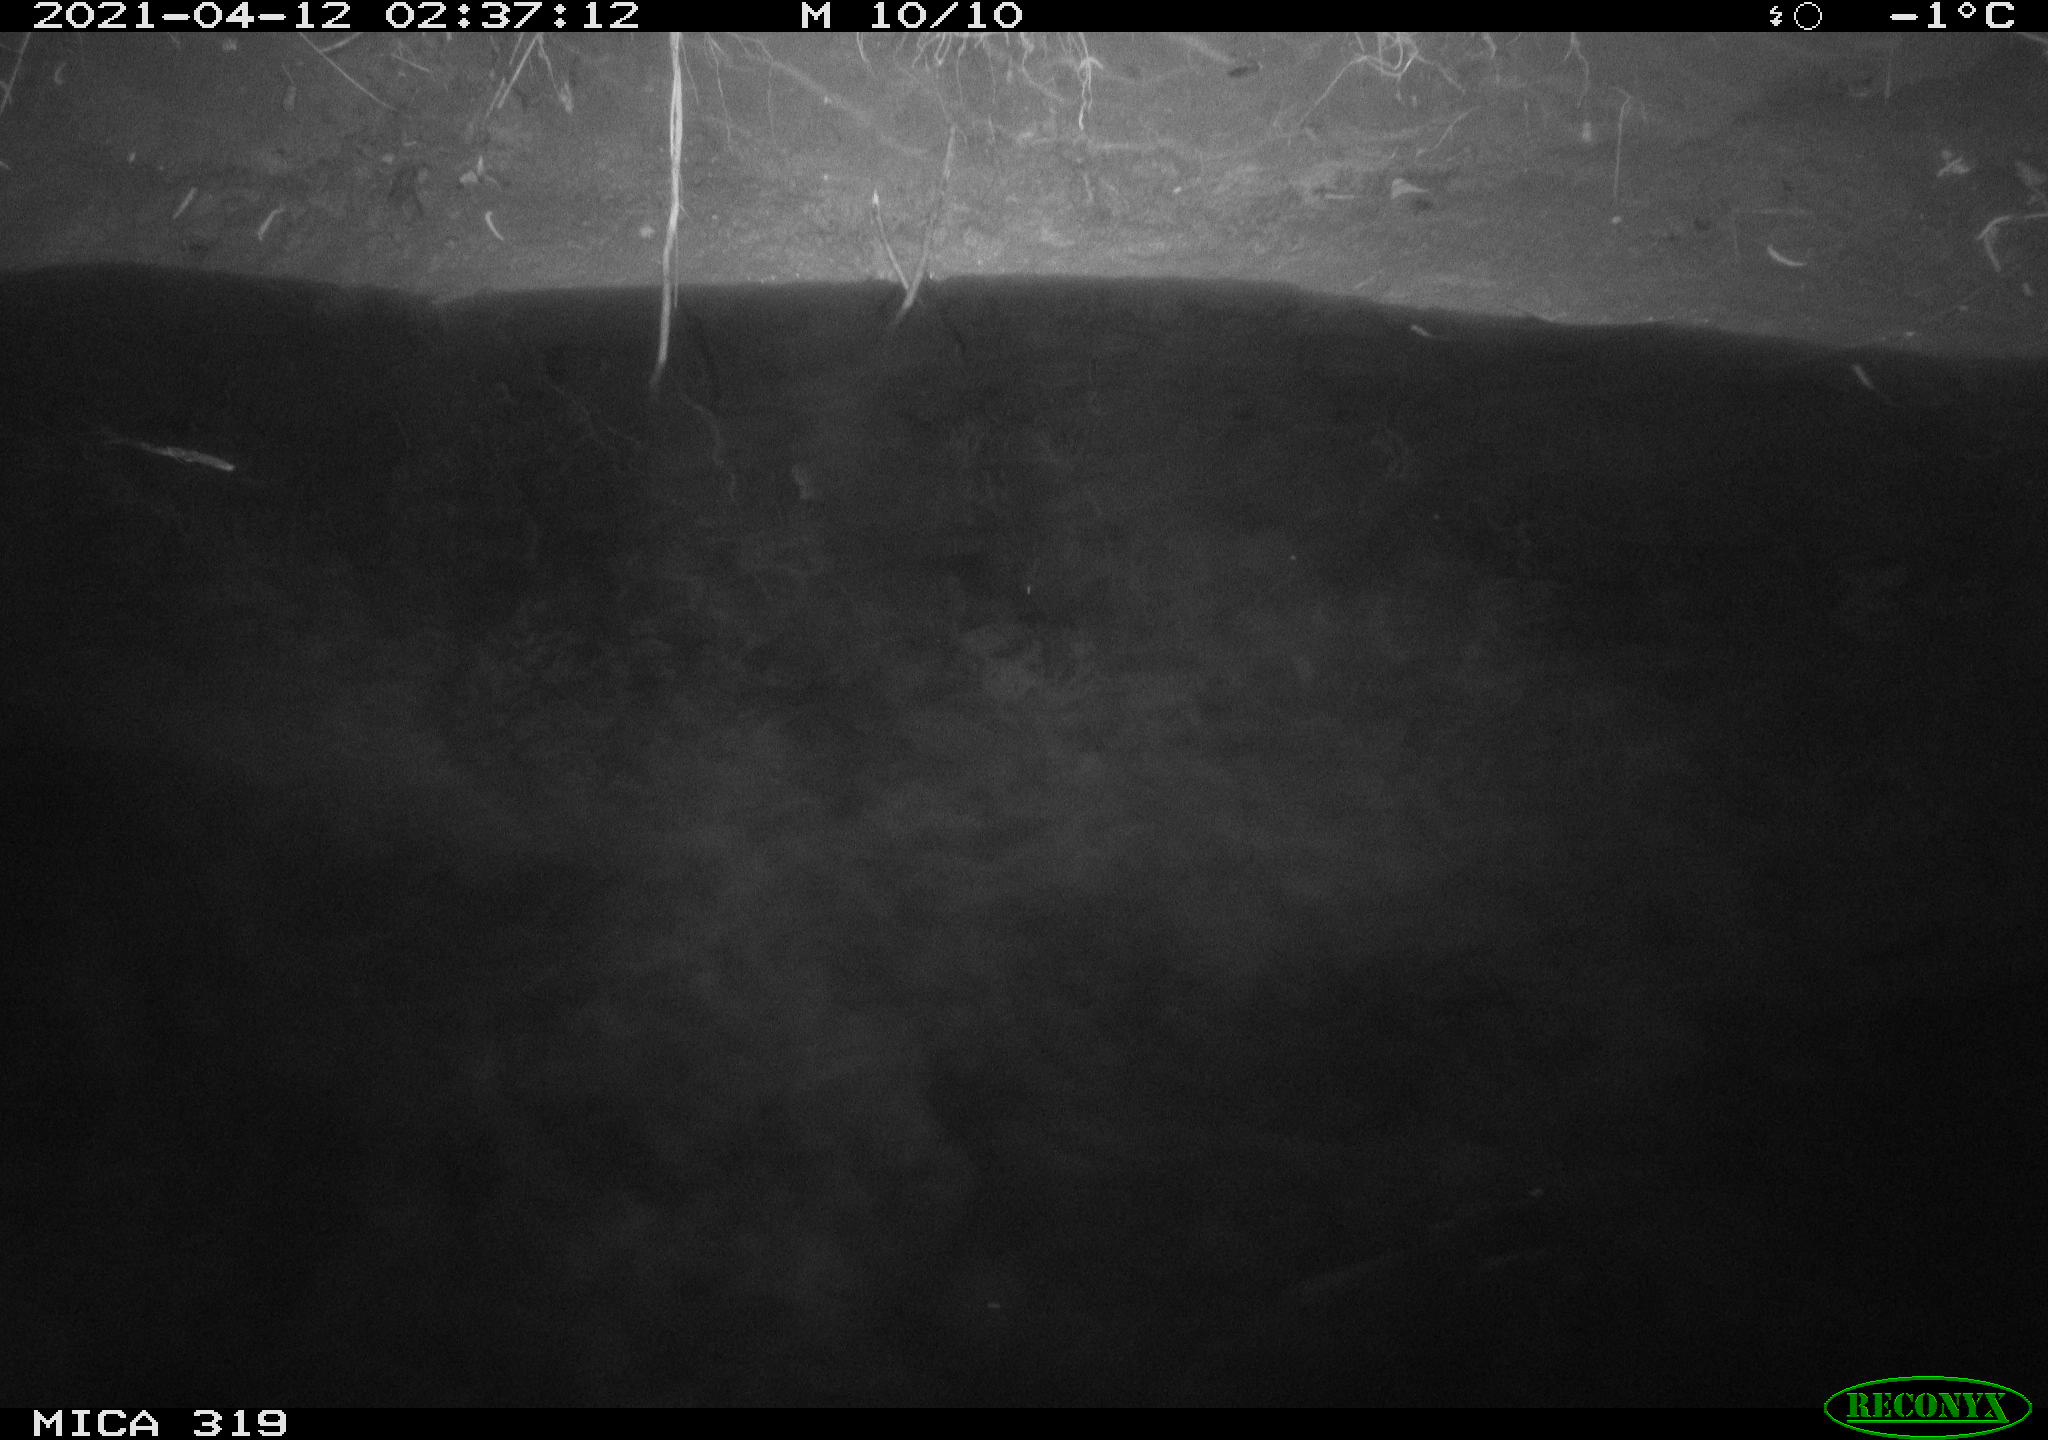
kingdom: Animalia
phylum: Chordata
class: Aves
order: Anseriformes
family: Anatidae
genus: Anas
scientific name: Anas platyrhynchos
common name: Mallard
